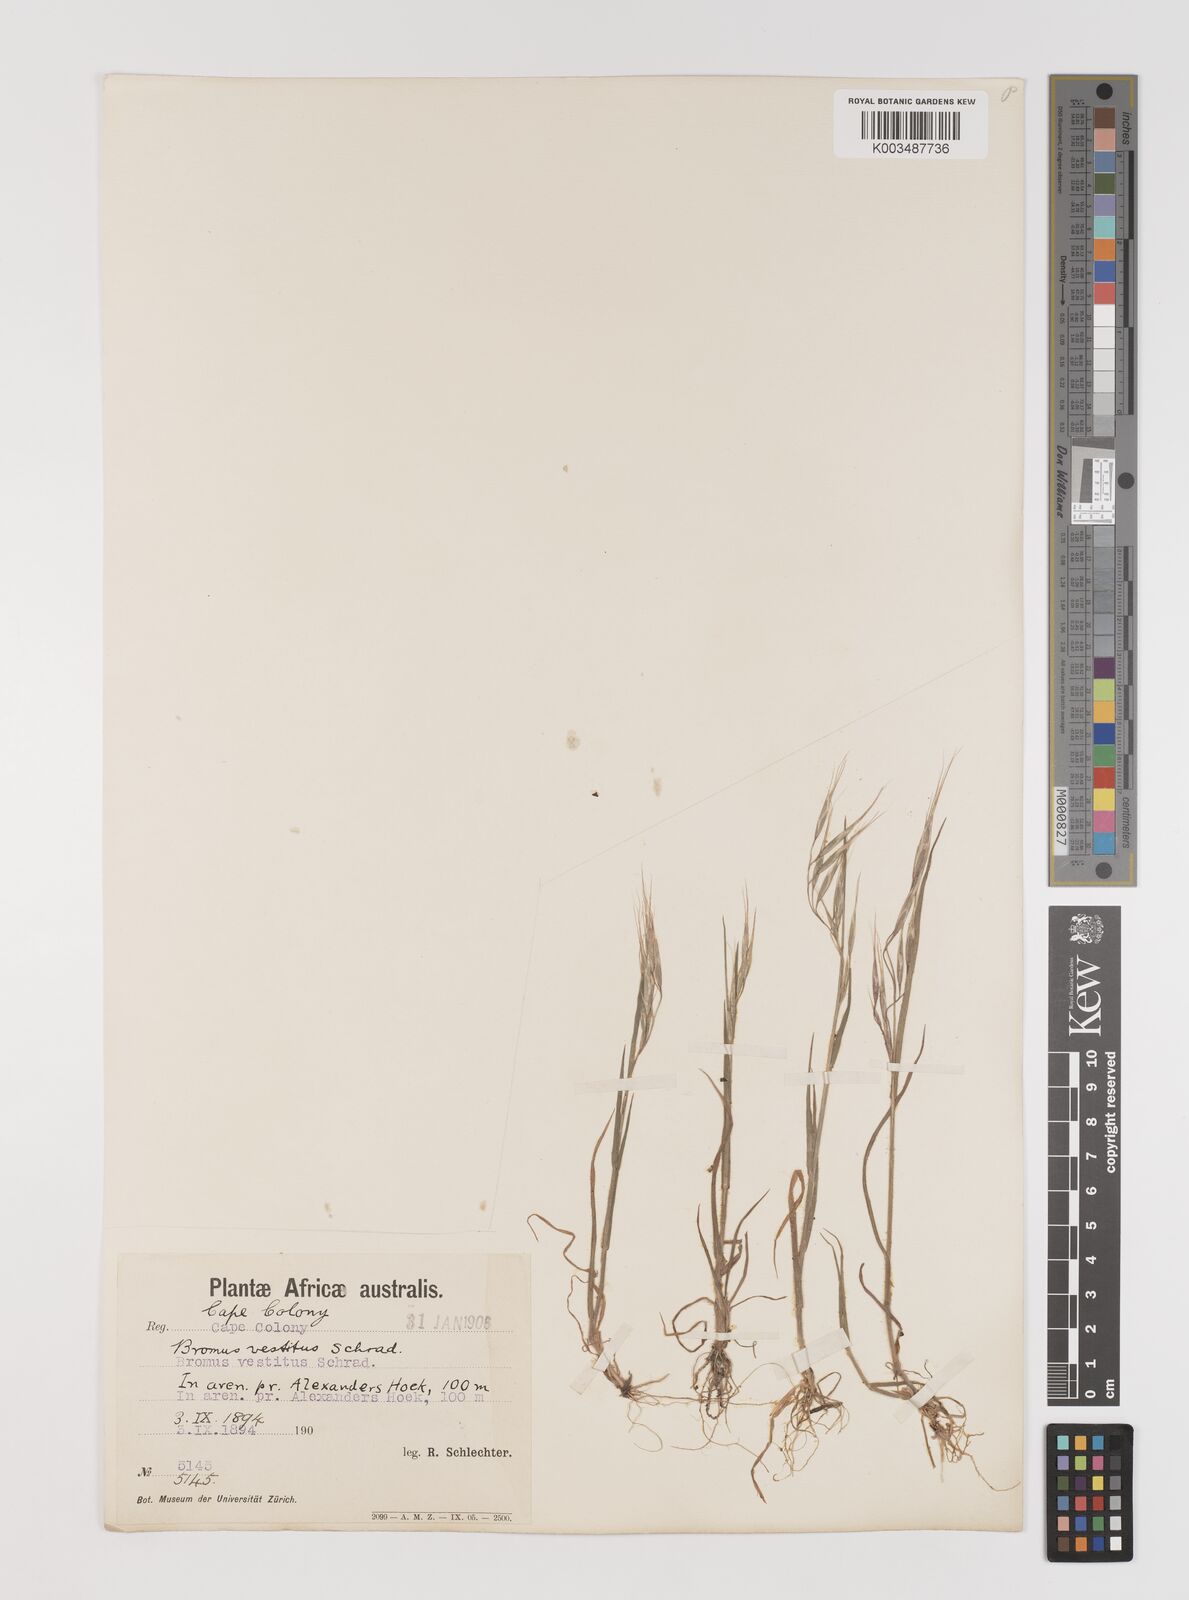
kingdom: Plantae
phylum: Tracheophyta
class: Liliopsida
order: Poales
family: Poaceae
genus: Bromus
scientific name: Bromus pectinatus
